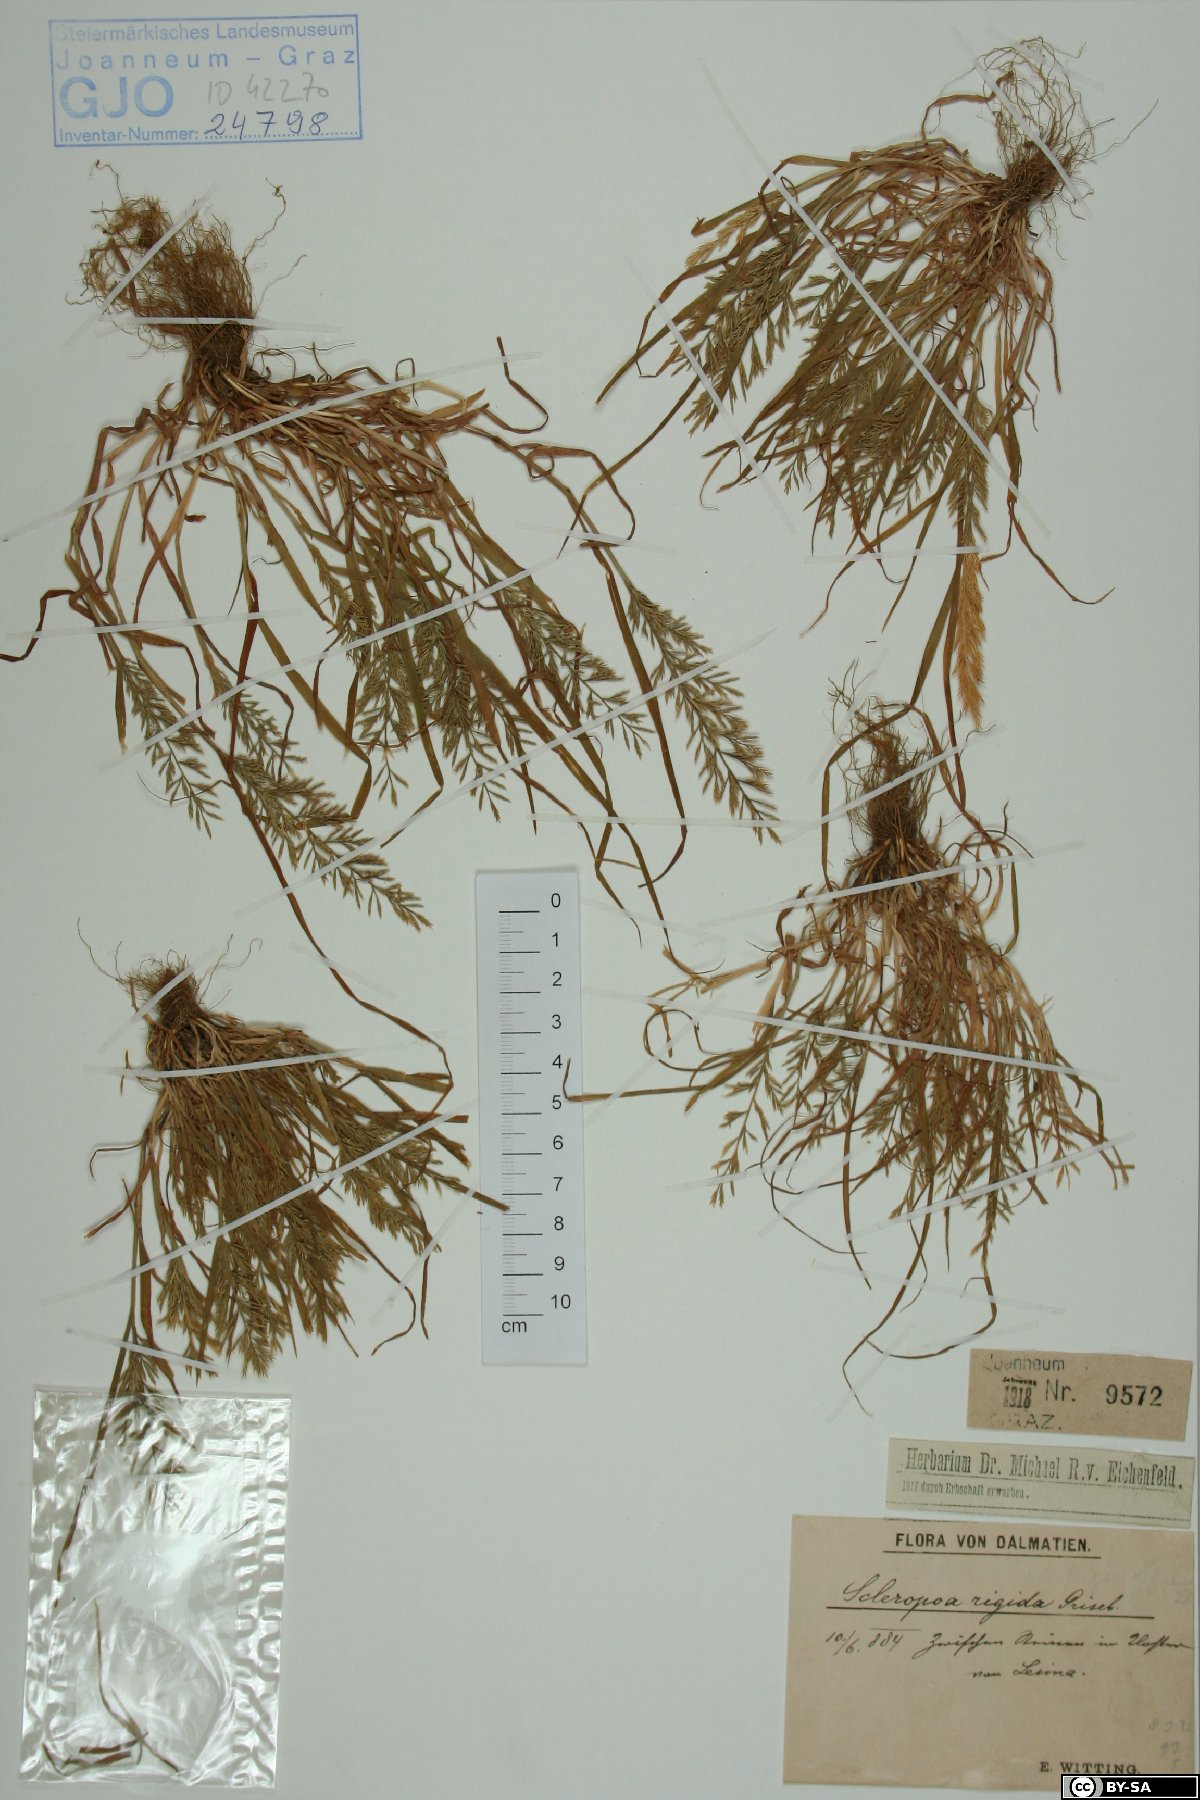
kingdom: Plantae
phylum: Tracheophyta
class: Liliopsida
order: Poales
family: Poaceae
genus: Catapodium
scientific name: Catapodium rigidum
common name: Fern-grass
